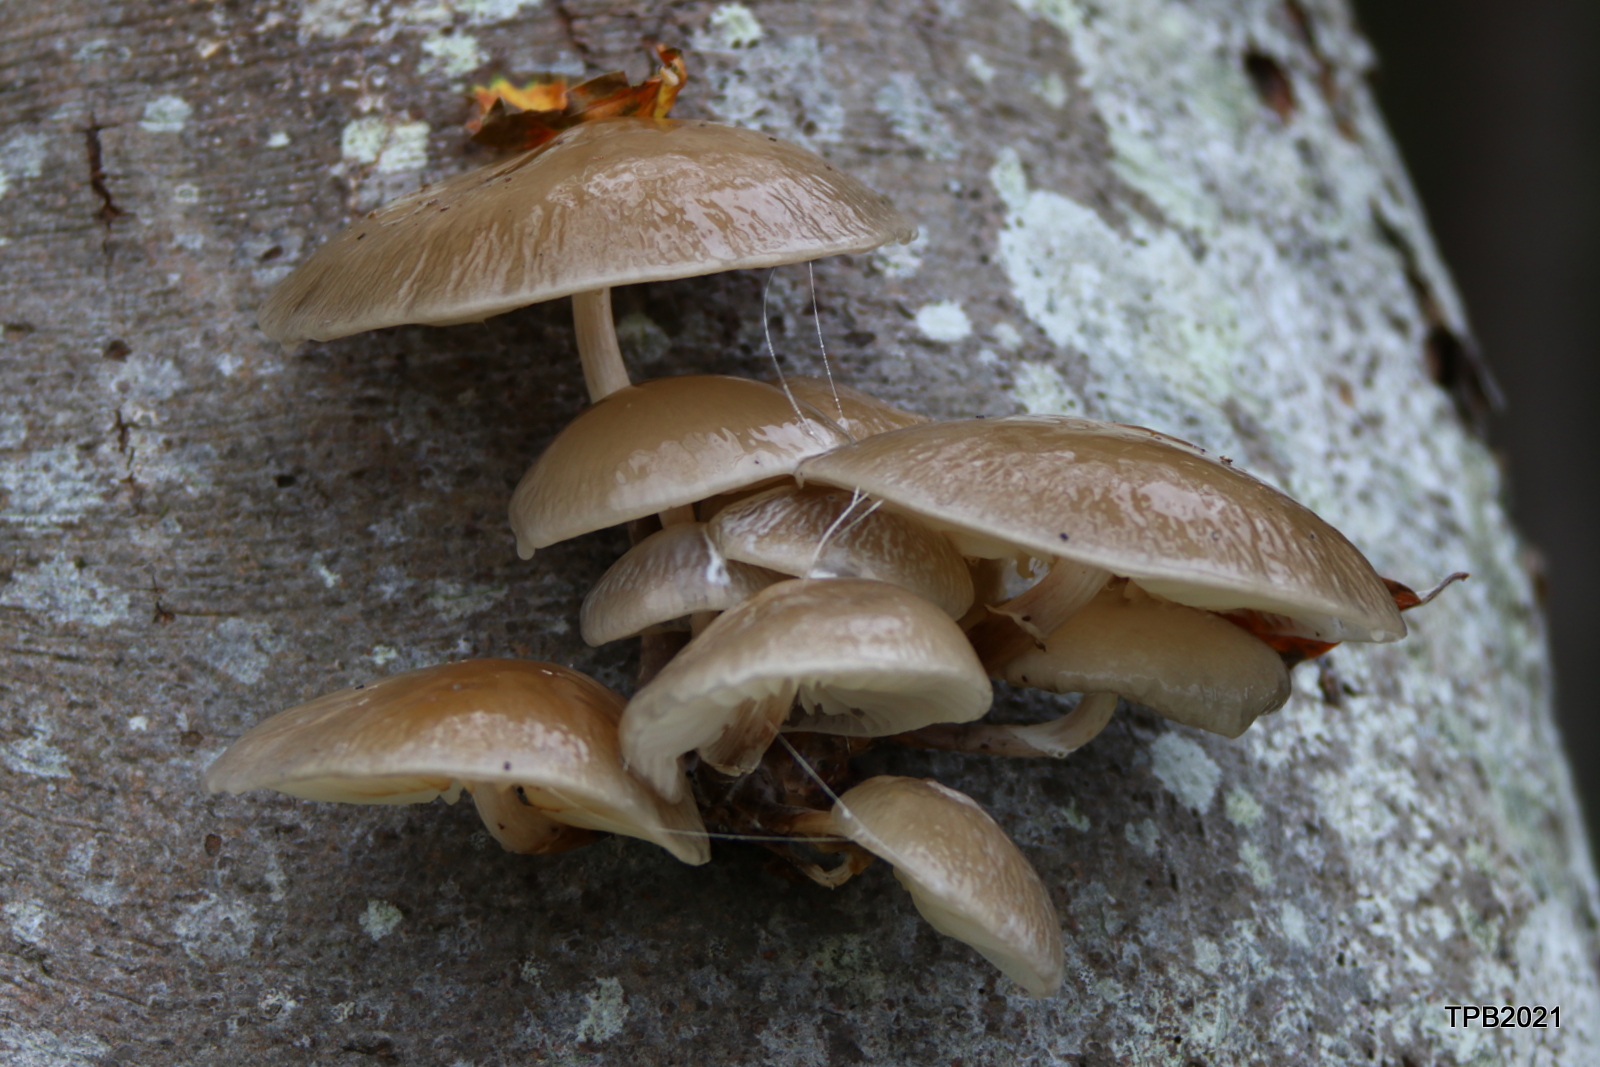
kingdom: Fungi
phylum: Basidiomycota
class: Agaricomycetes
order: Agaricales
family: Physalacriaceae
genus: Mucidula
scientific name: Mucidula mucida
